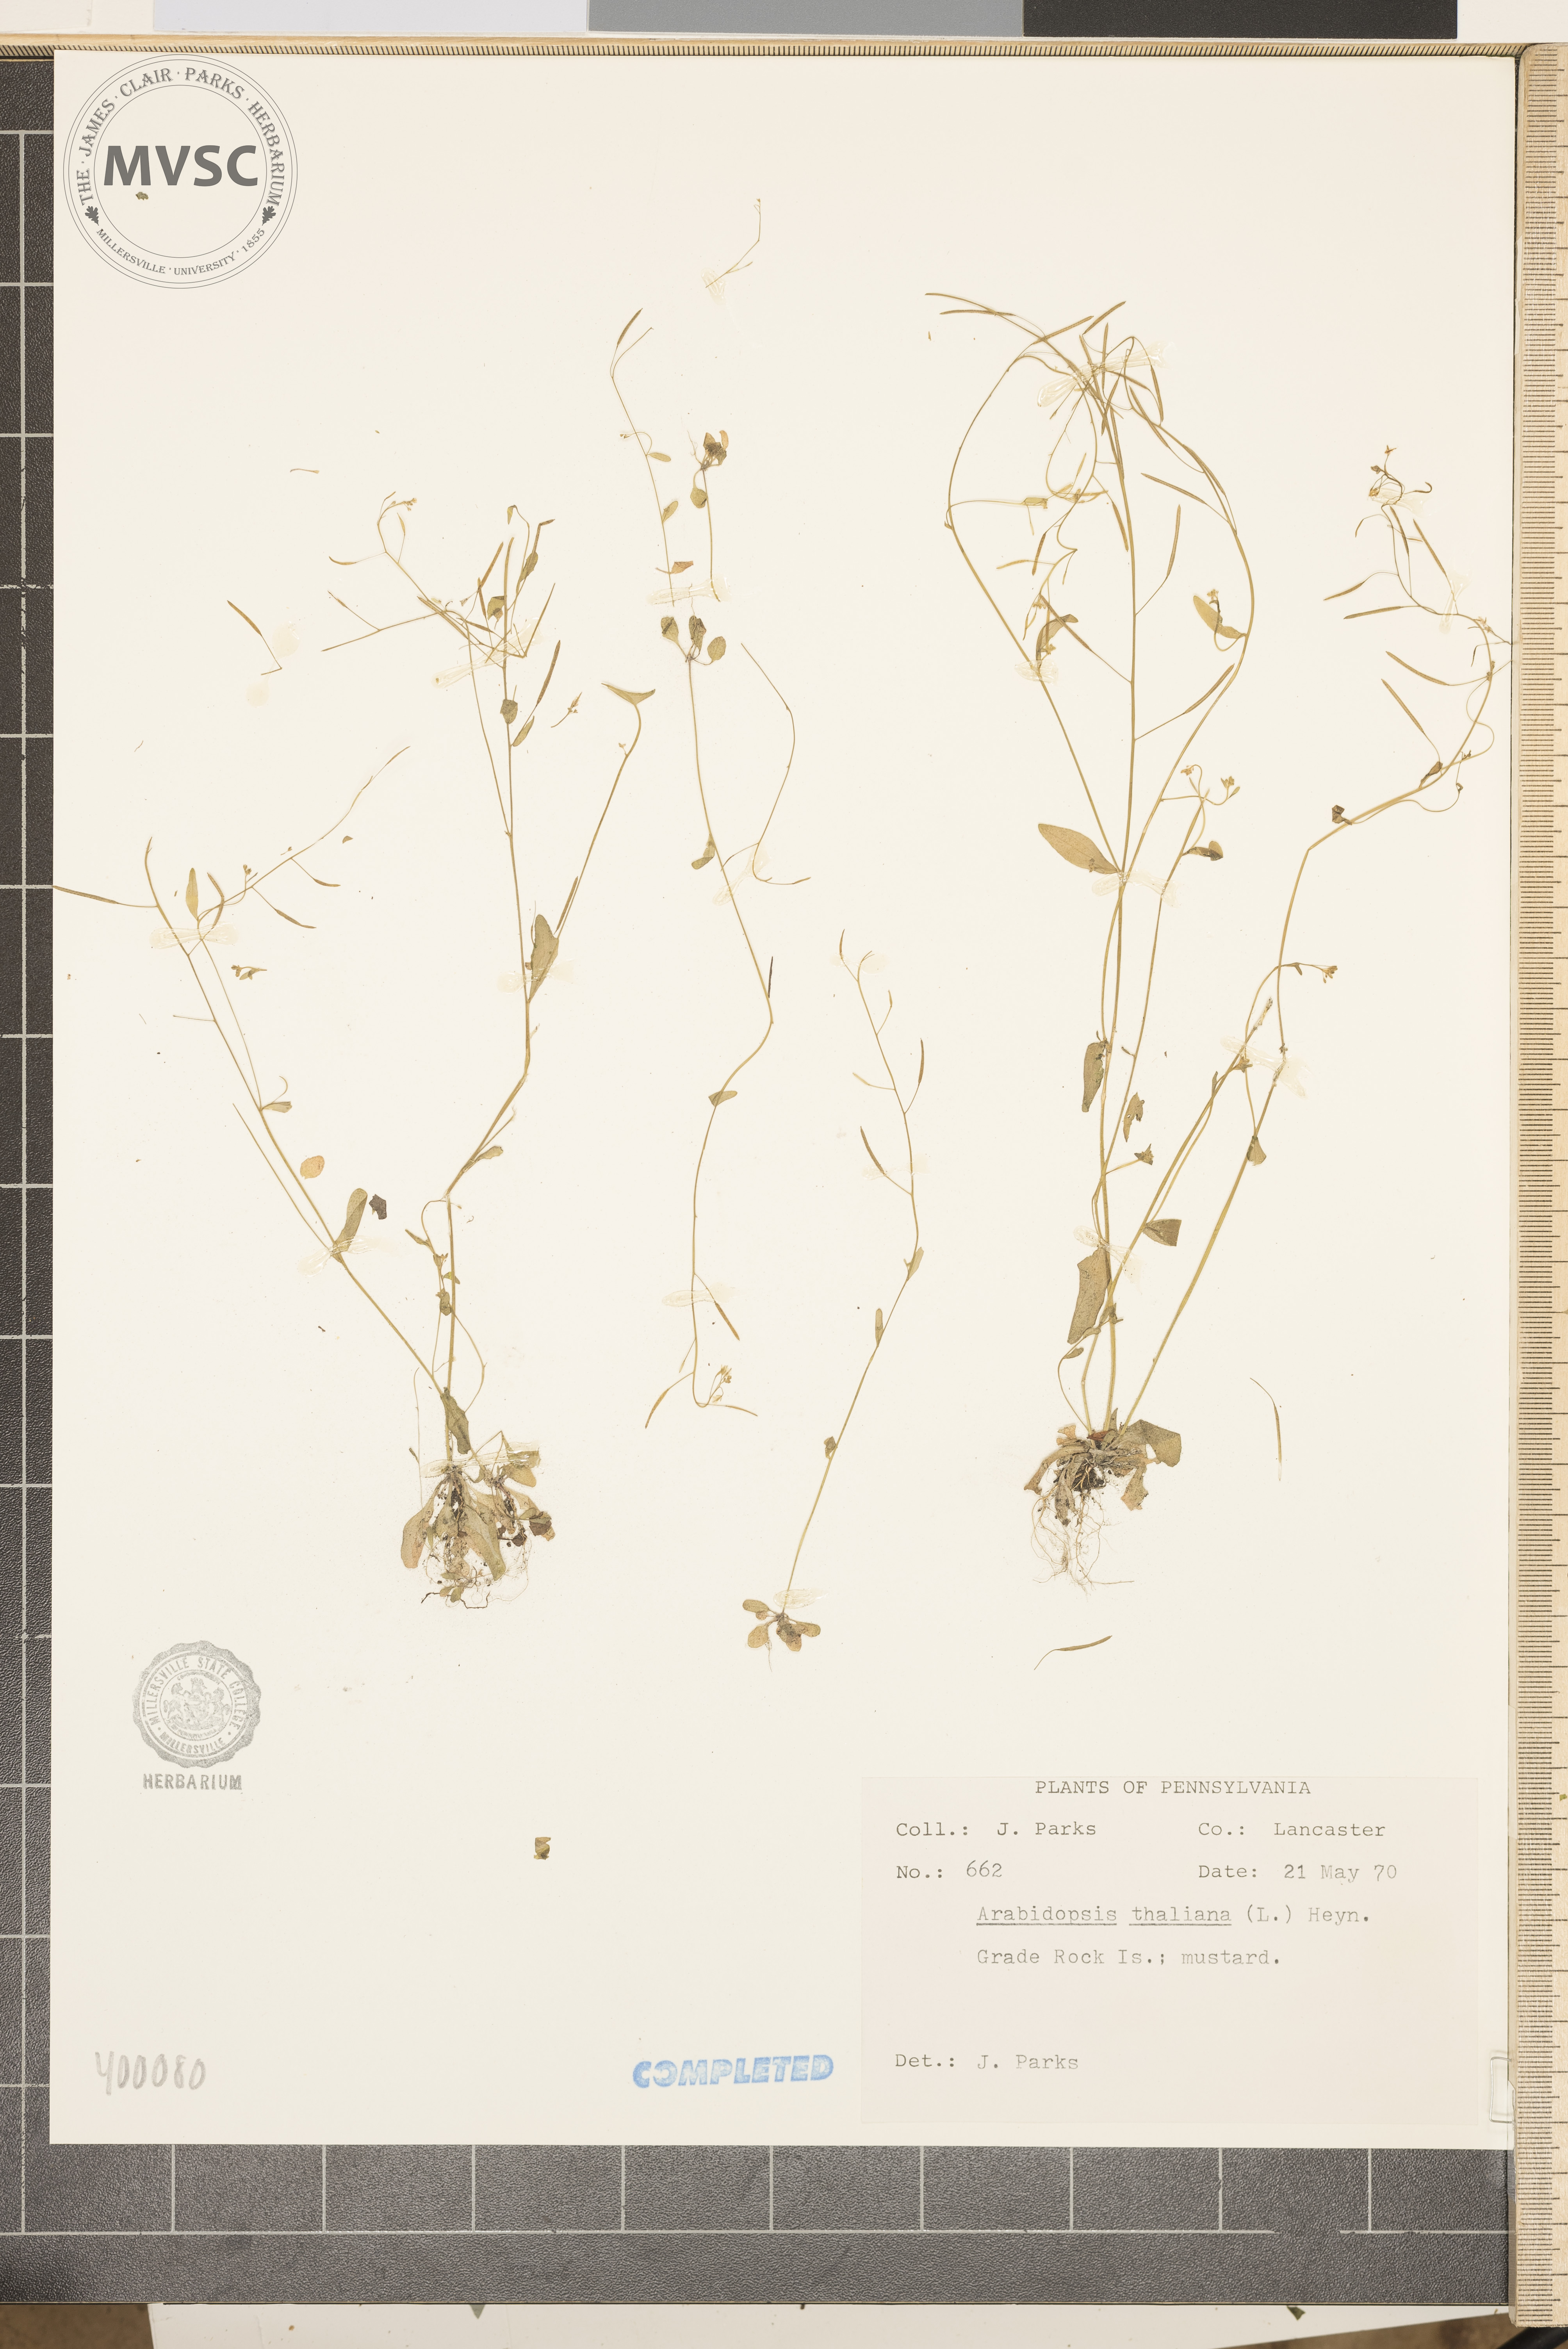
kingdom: Plantae
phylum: Tracheophyta
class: Magnoliopsida
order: Brassicales
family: Brassicaceae
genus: Arabidopsis
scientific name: Arabidopsis thaliana
